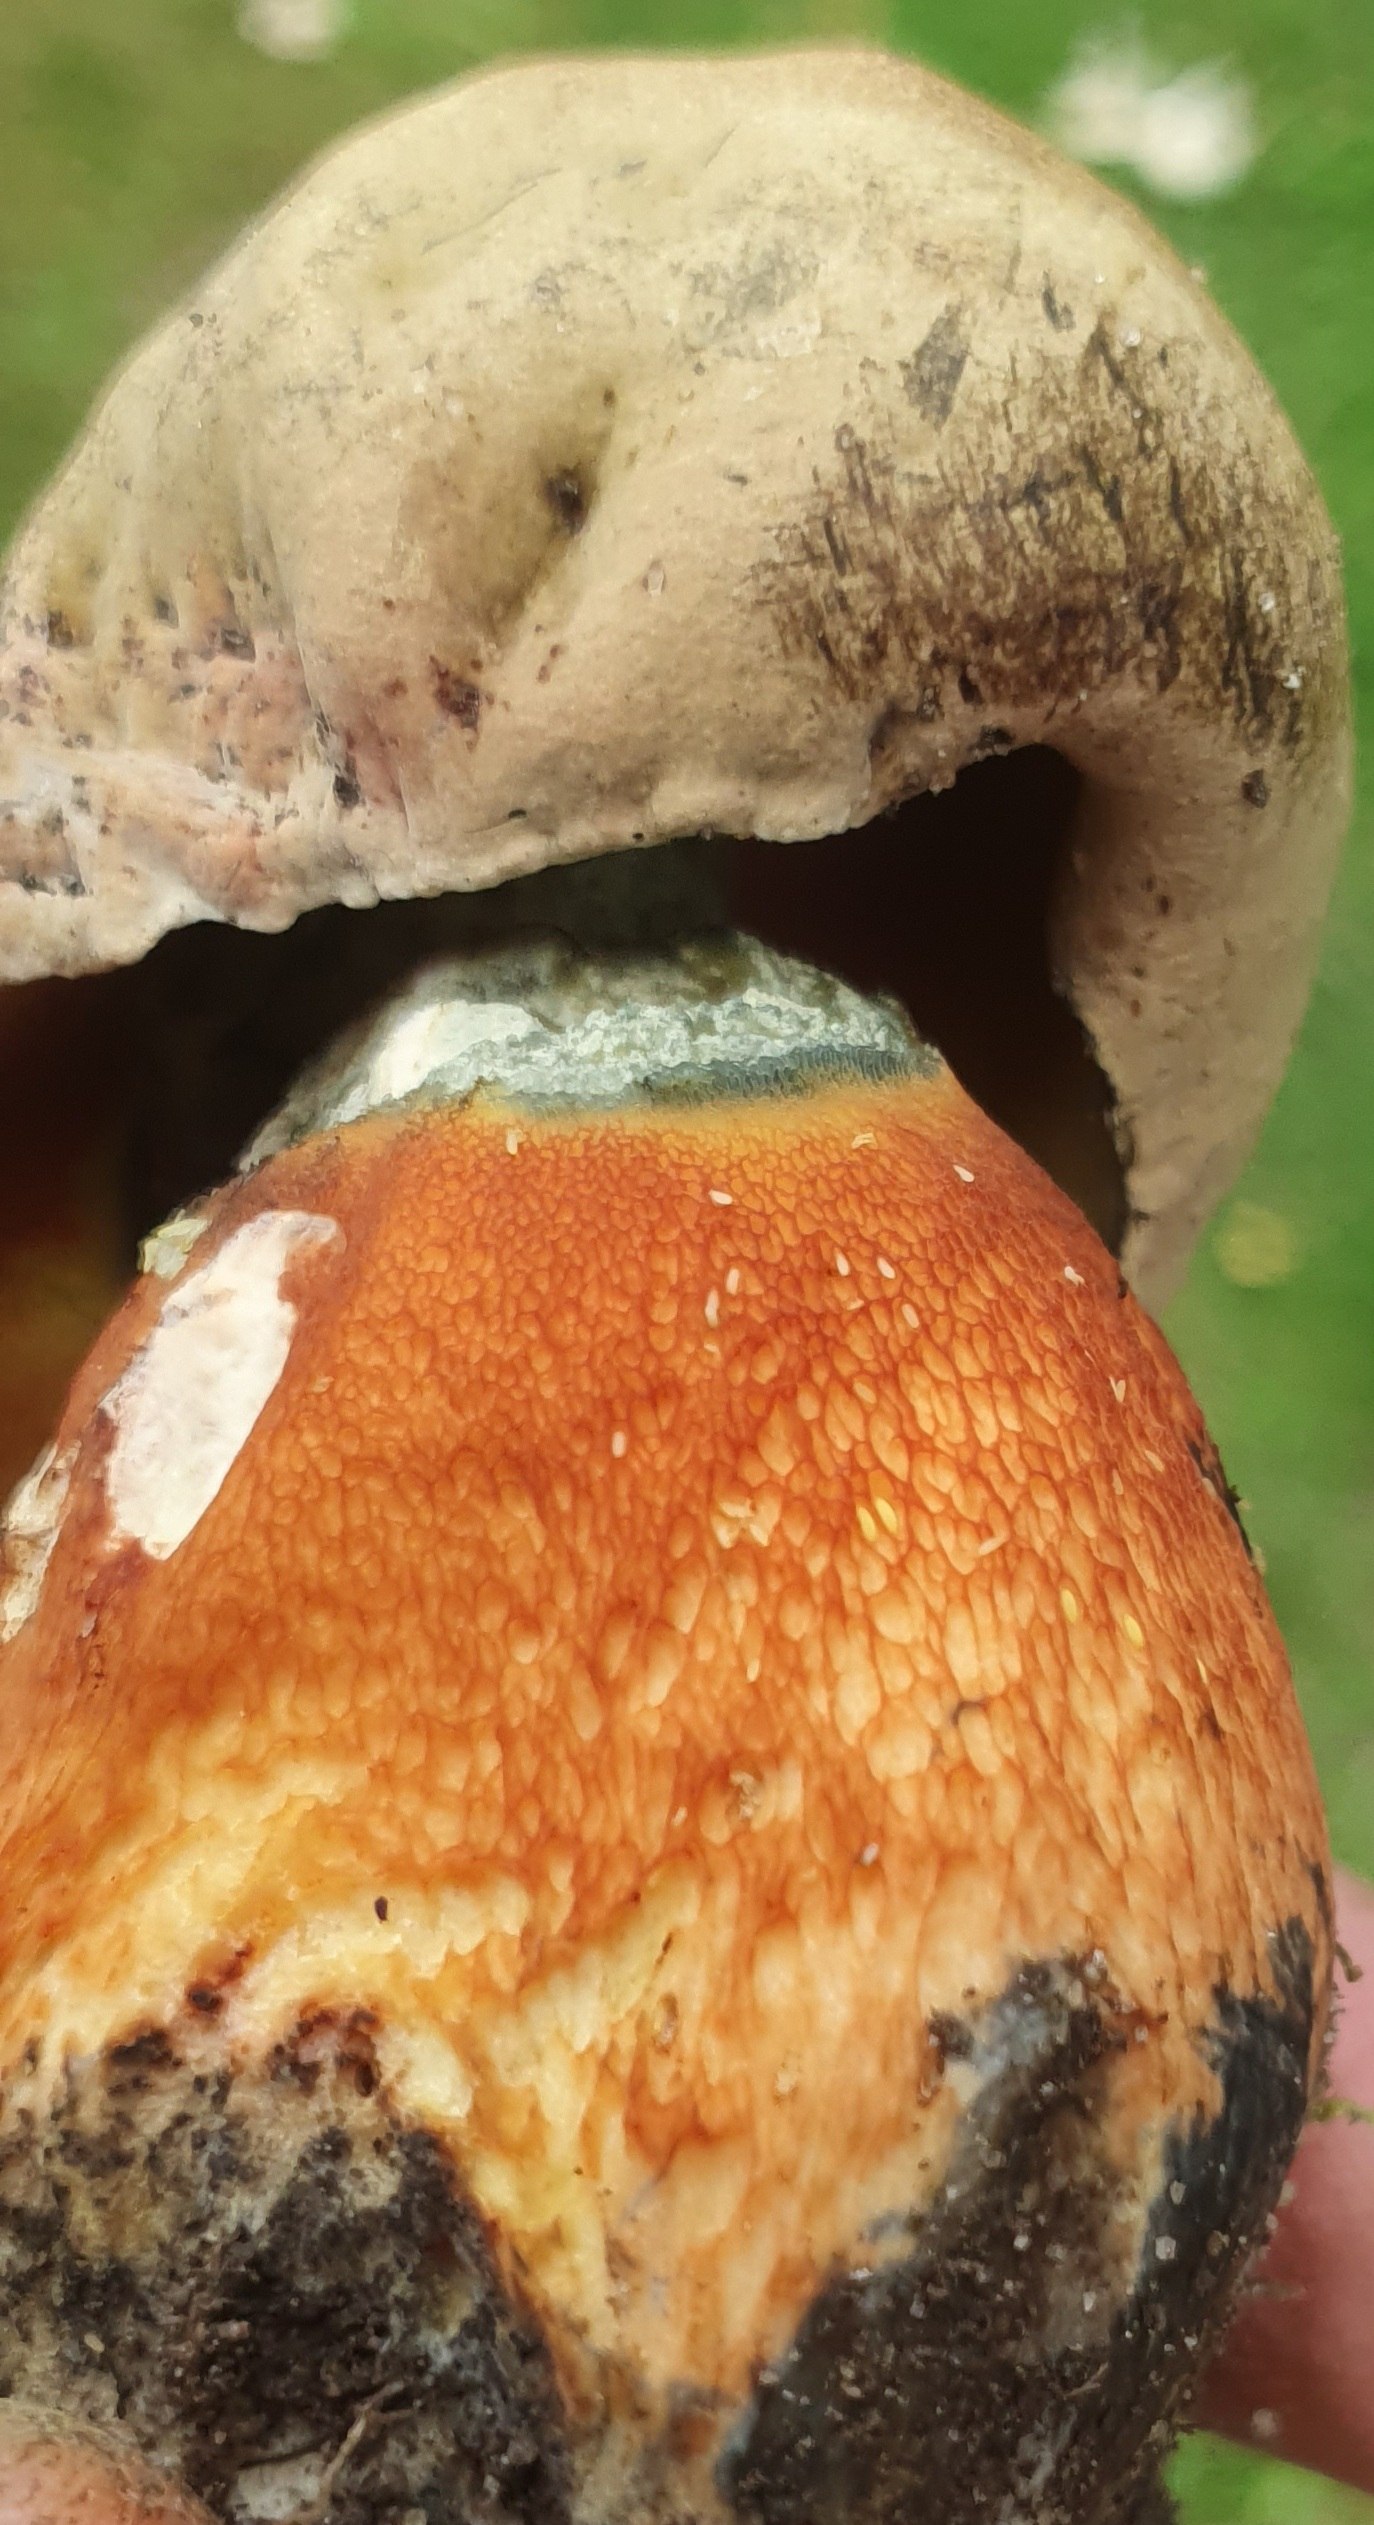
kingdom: Fungi
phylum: Basidiomycota
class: Agaricomycetes
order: Boletales
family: Boletaceae
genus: Suillellus
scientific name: Suillellus luridus
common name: netstokket indigorørhat
